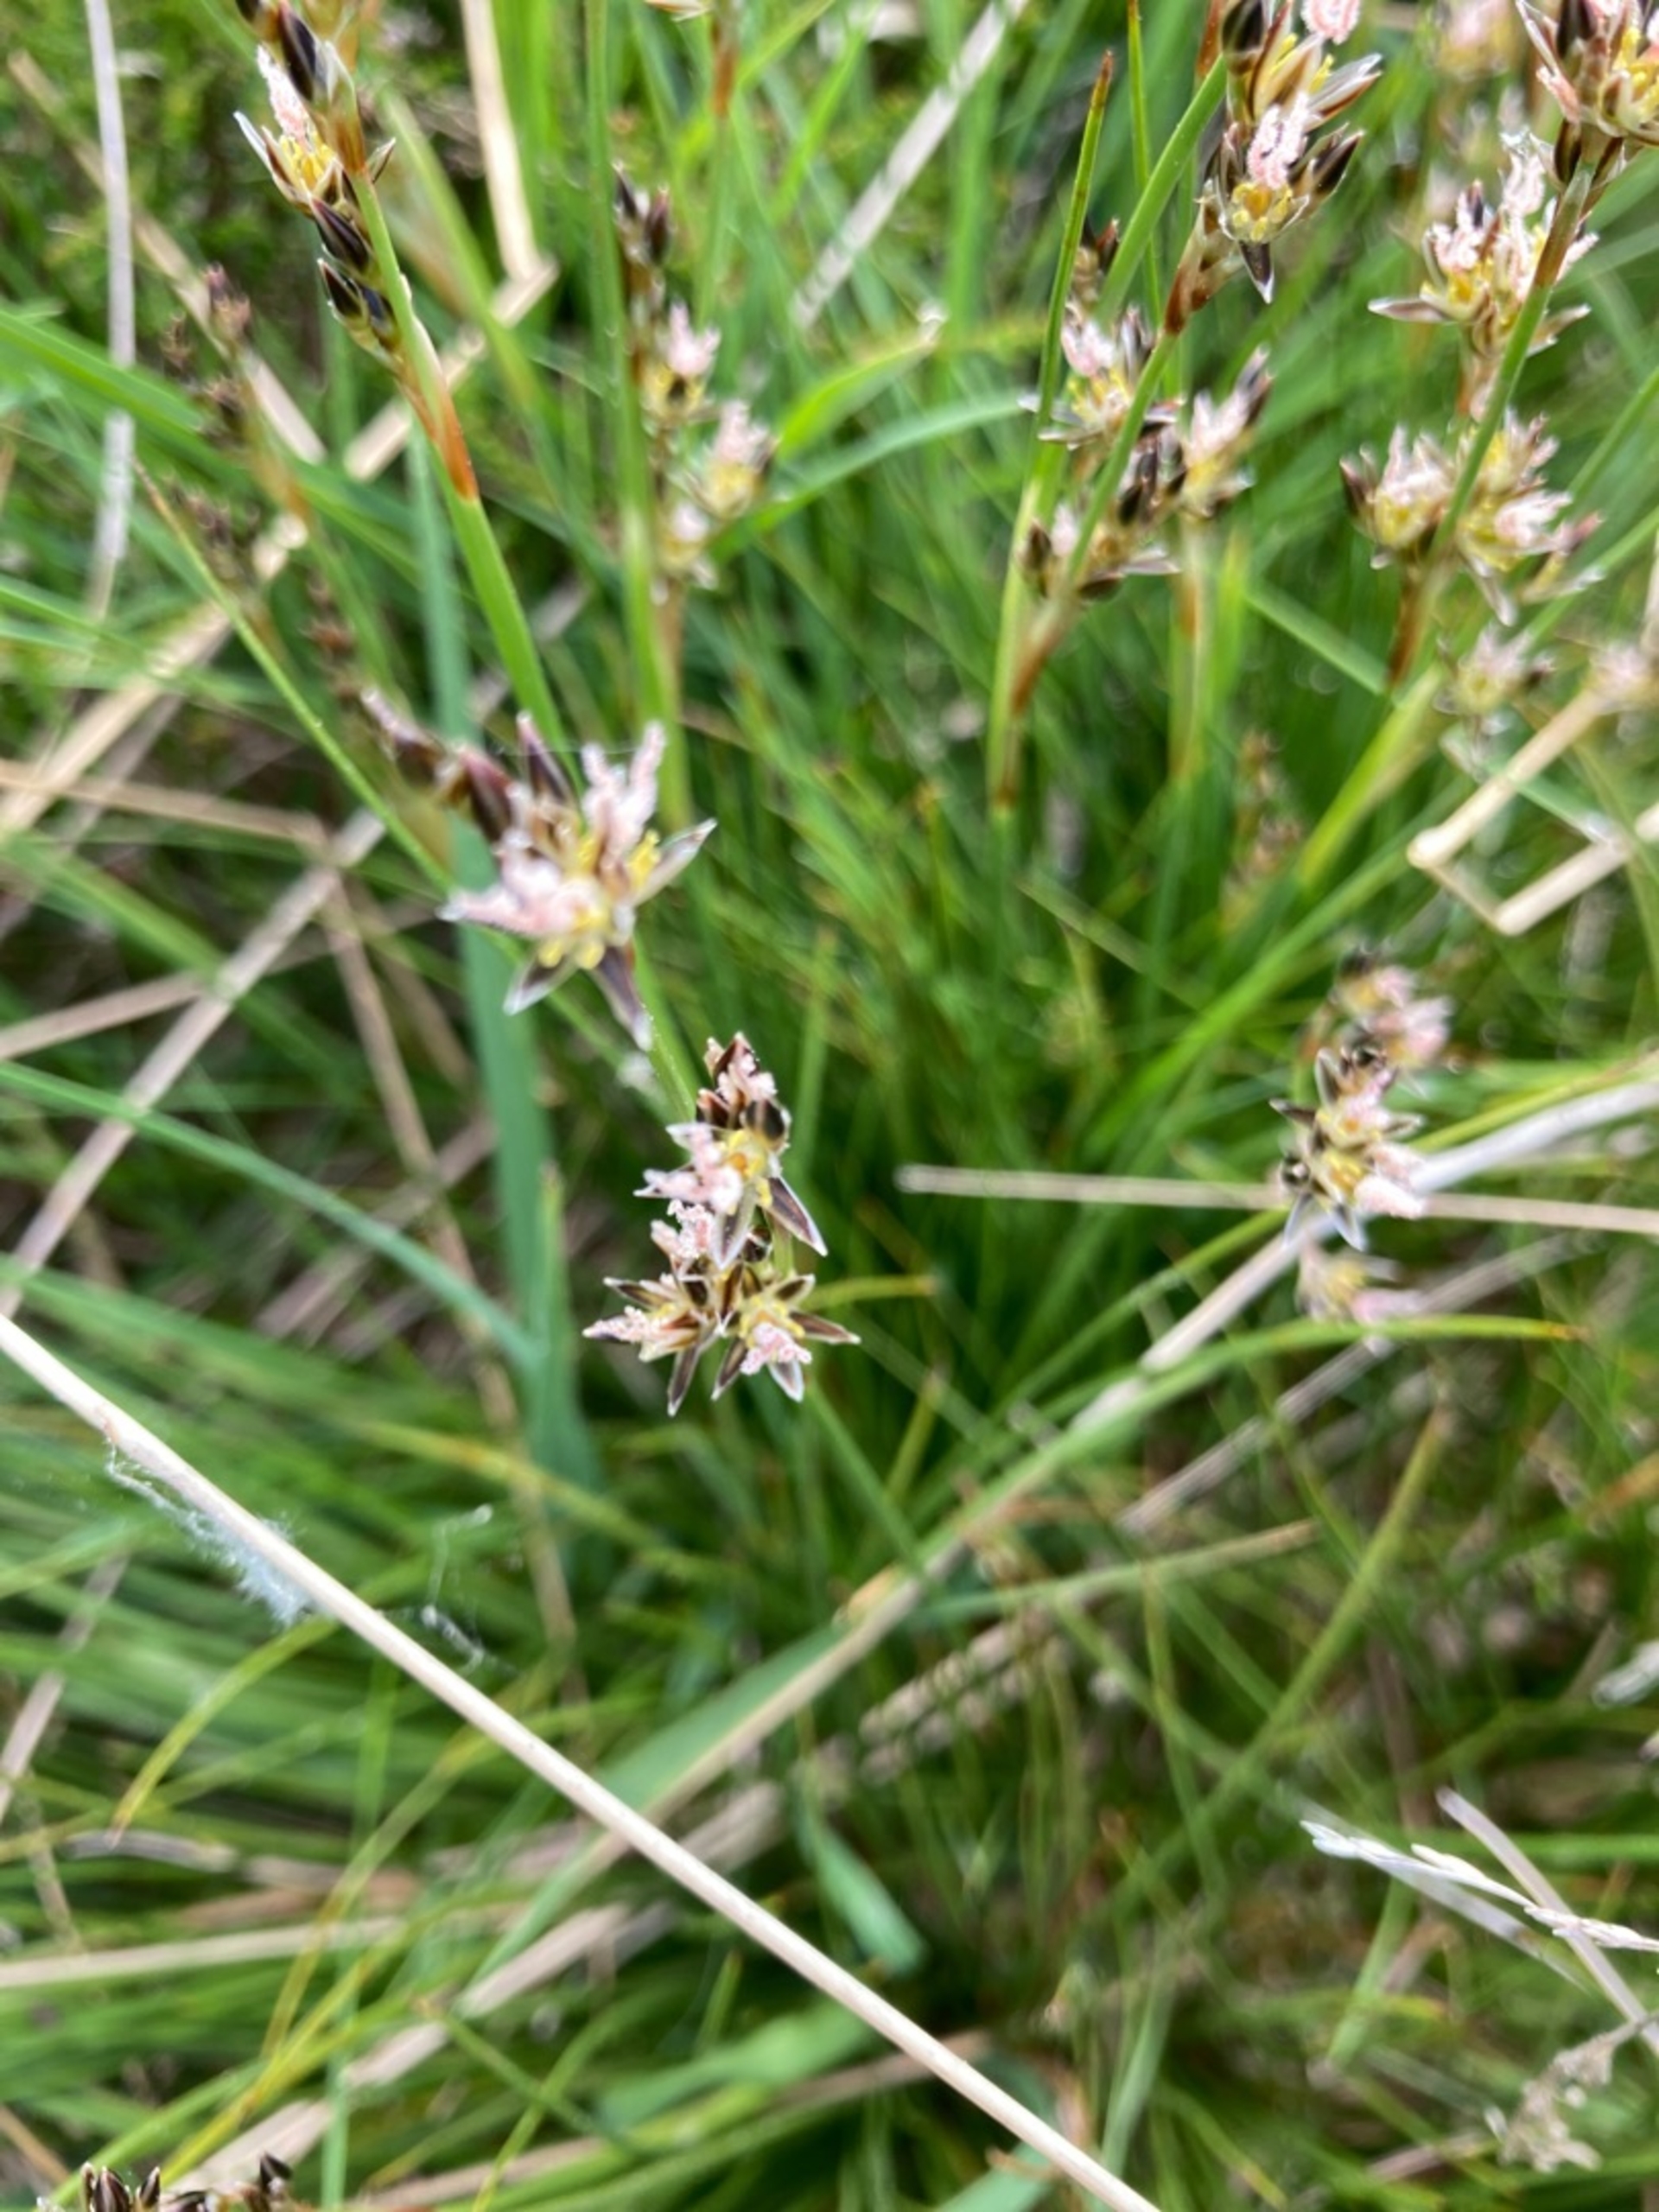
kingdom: Plantae
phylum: Tracheophyta
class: Liliopsida
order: Poales
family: Juncaceae
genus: Juncus
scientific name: Juncus squarrosus
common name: Børste-siv
